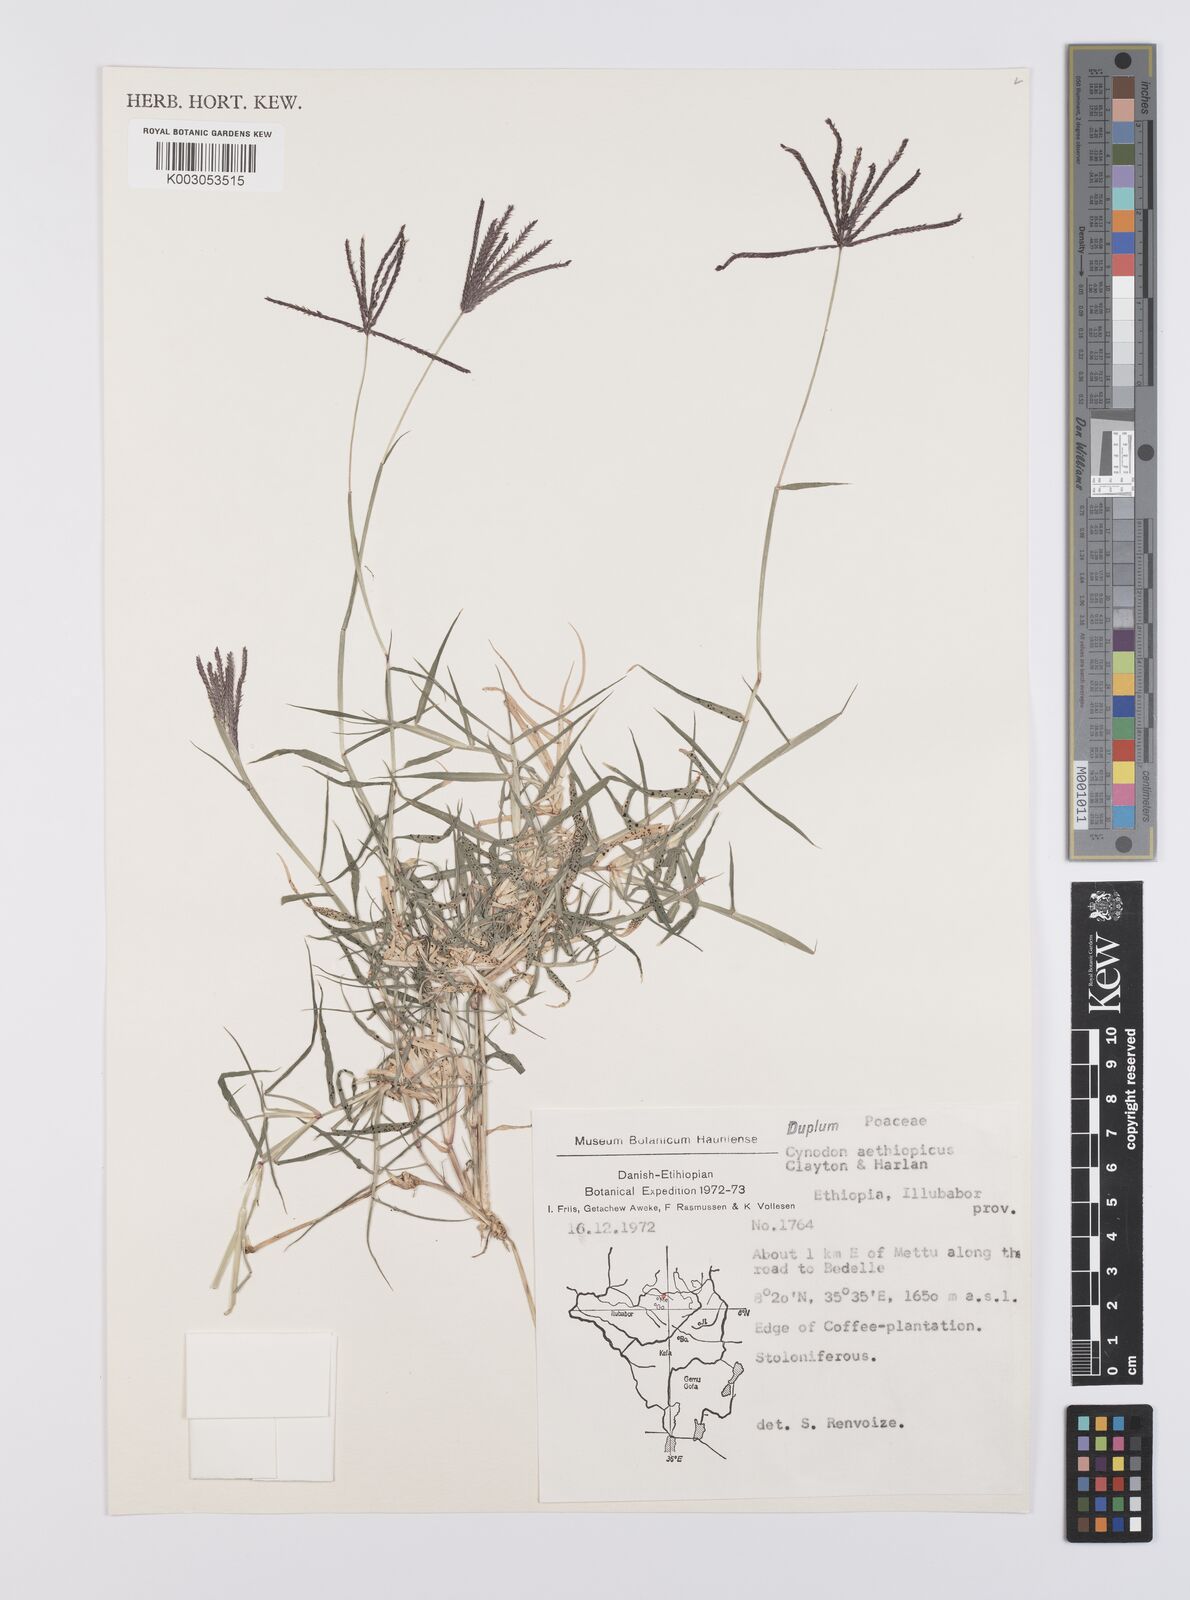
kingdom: Plantae
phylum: Tracheophyta
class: Liliopsida
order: Poales
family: Poaceae
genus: Cynodon
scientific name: Cynodon aethiopicus
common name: Ethiopian dogstooth grass
